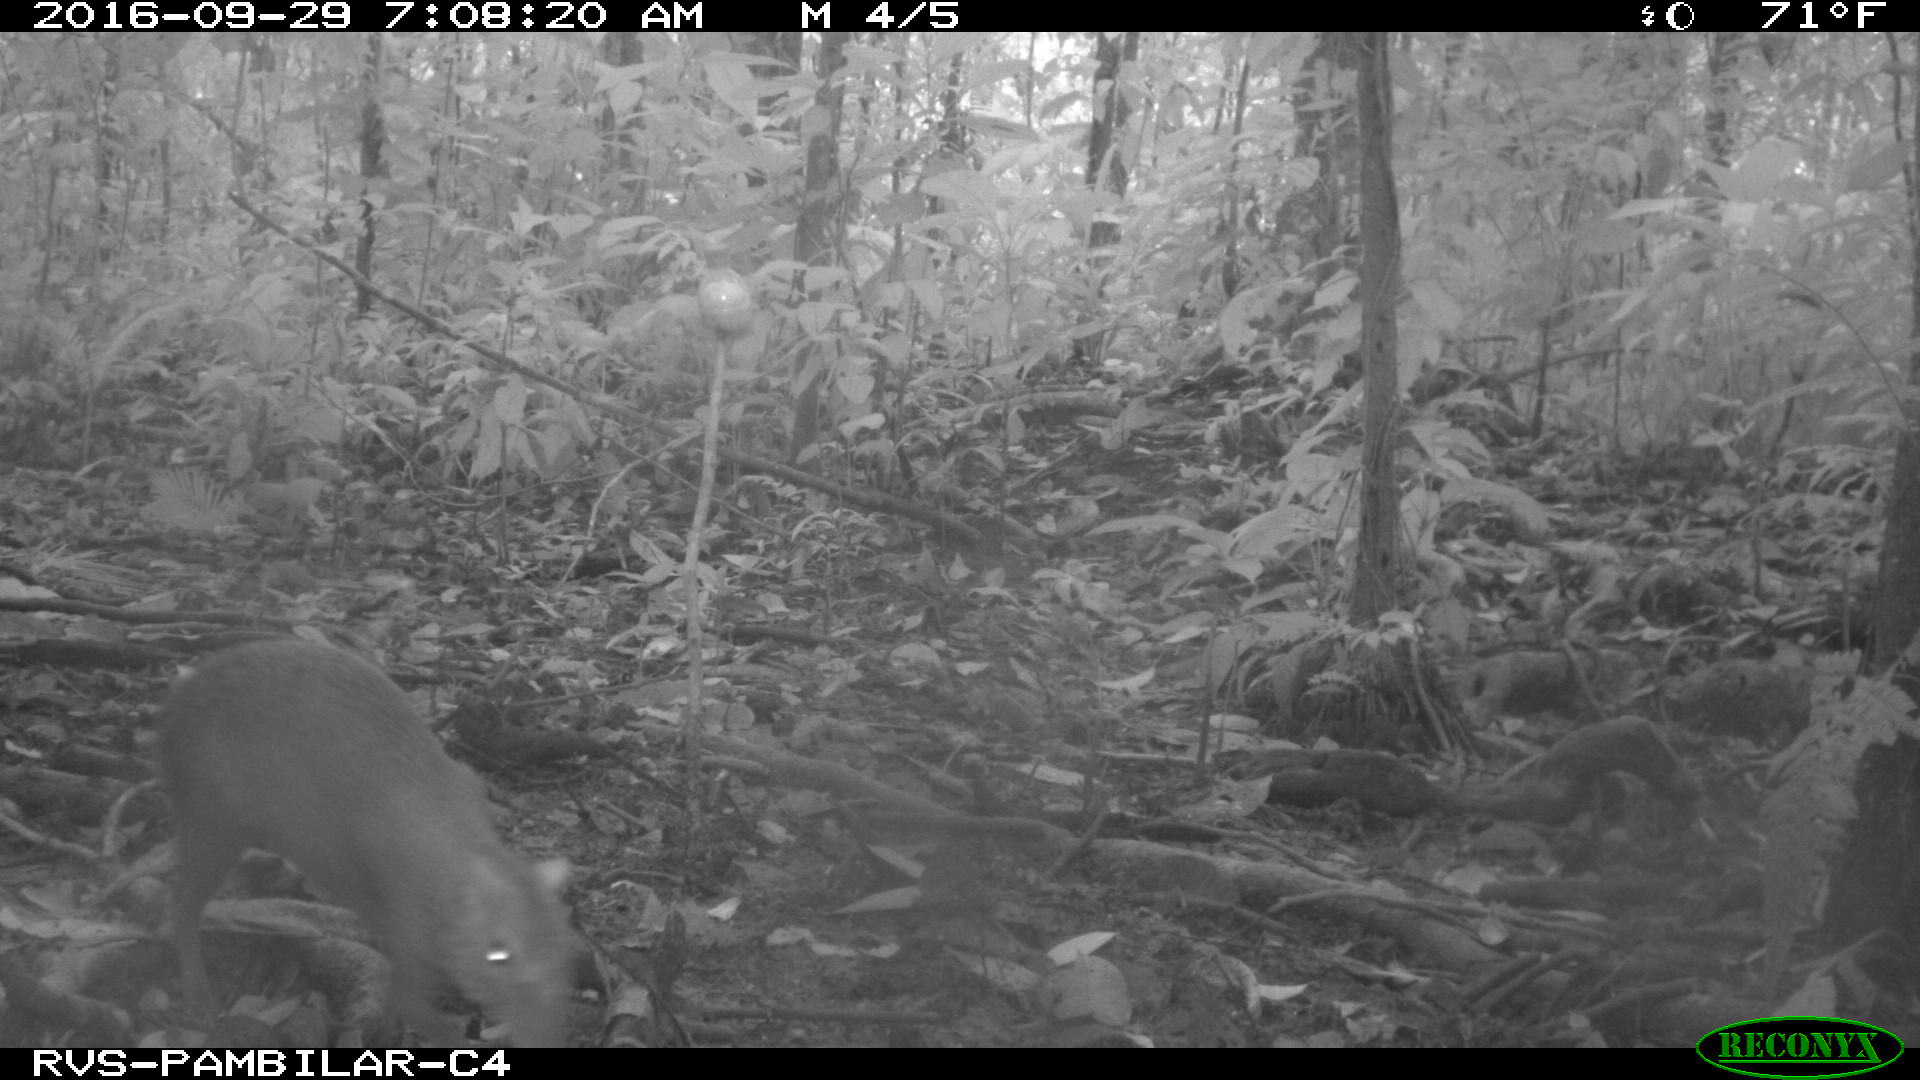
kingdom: Animalia
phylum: Chordata
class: Mammalia
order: Rodentia
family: Dasyproctidae
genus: Dasyprocta
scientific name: Dasyprocta punctata
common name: Central american agouti
